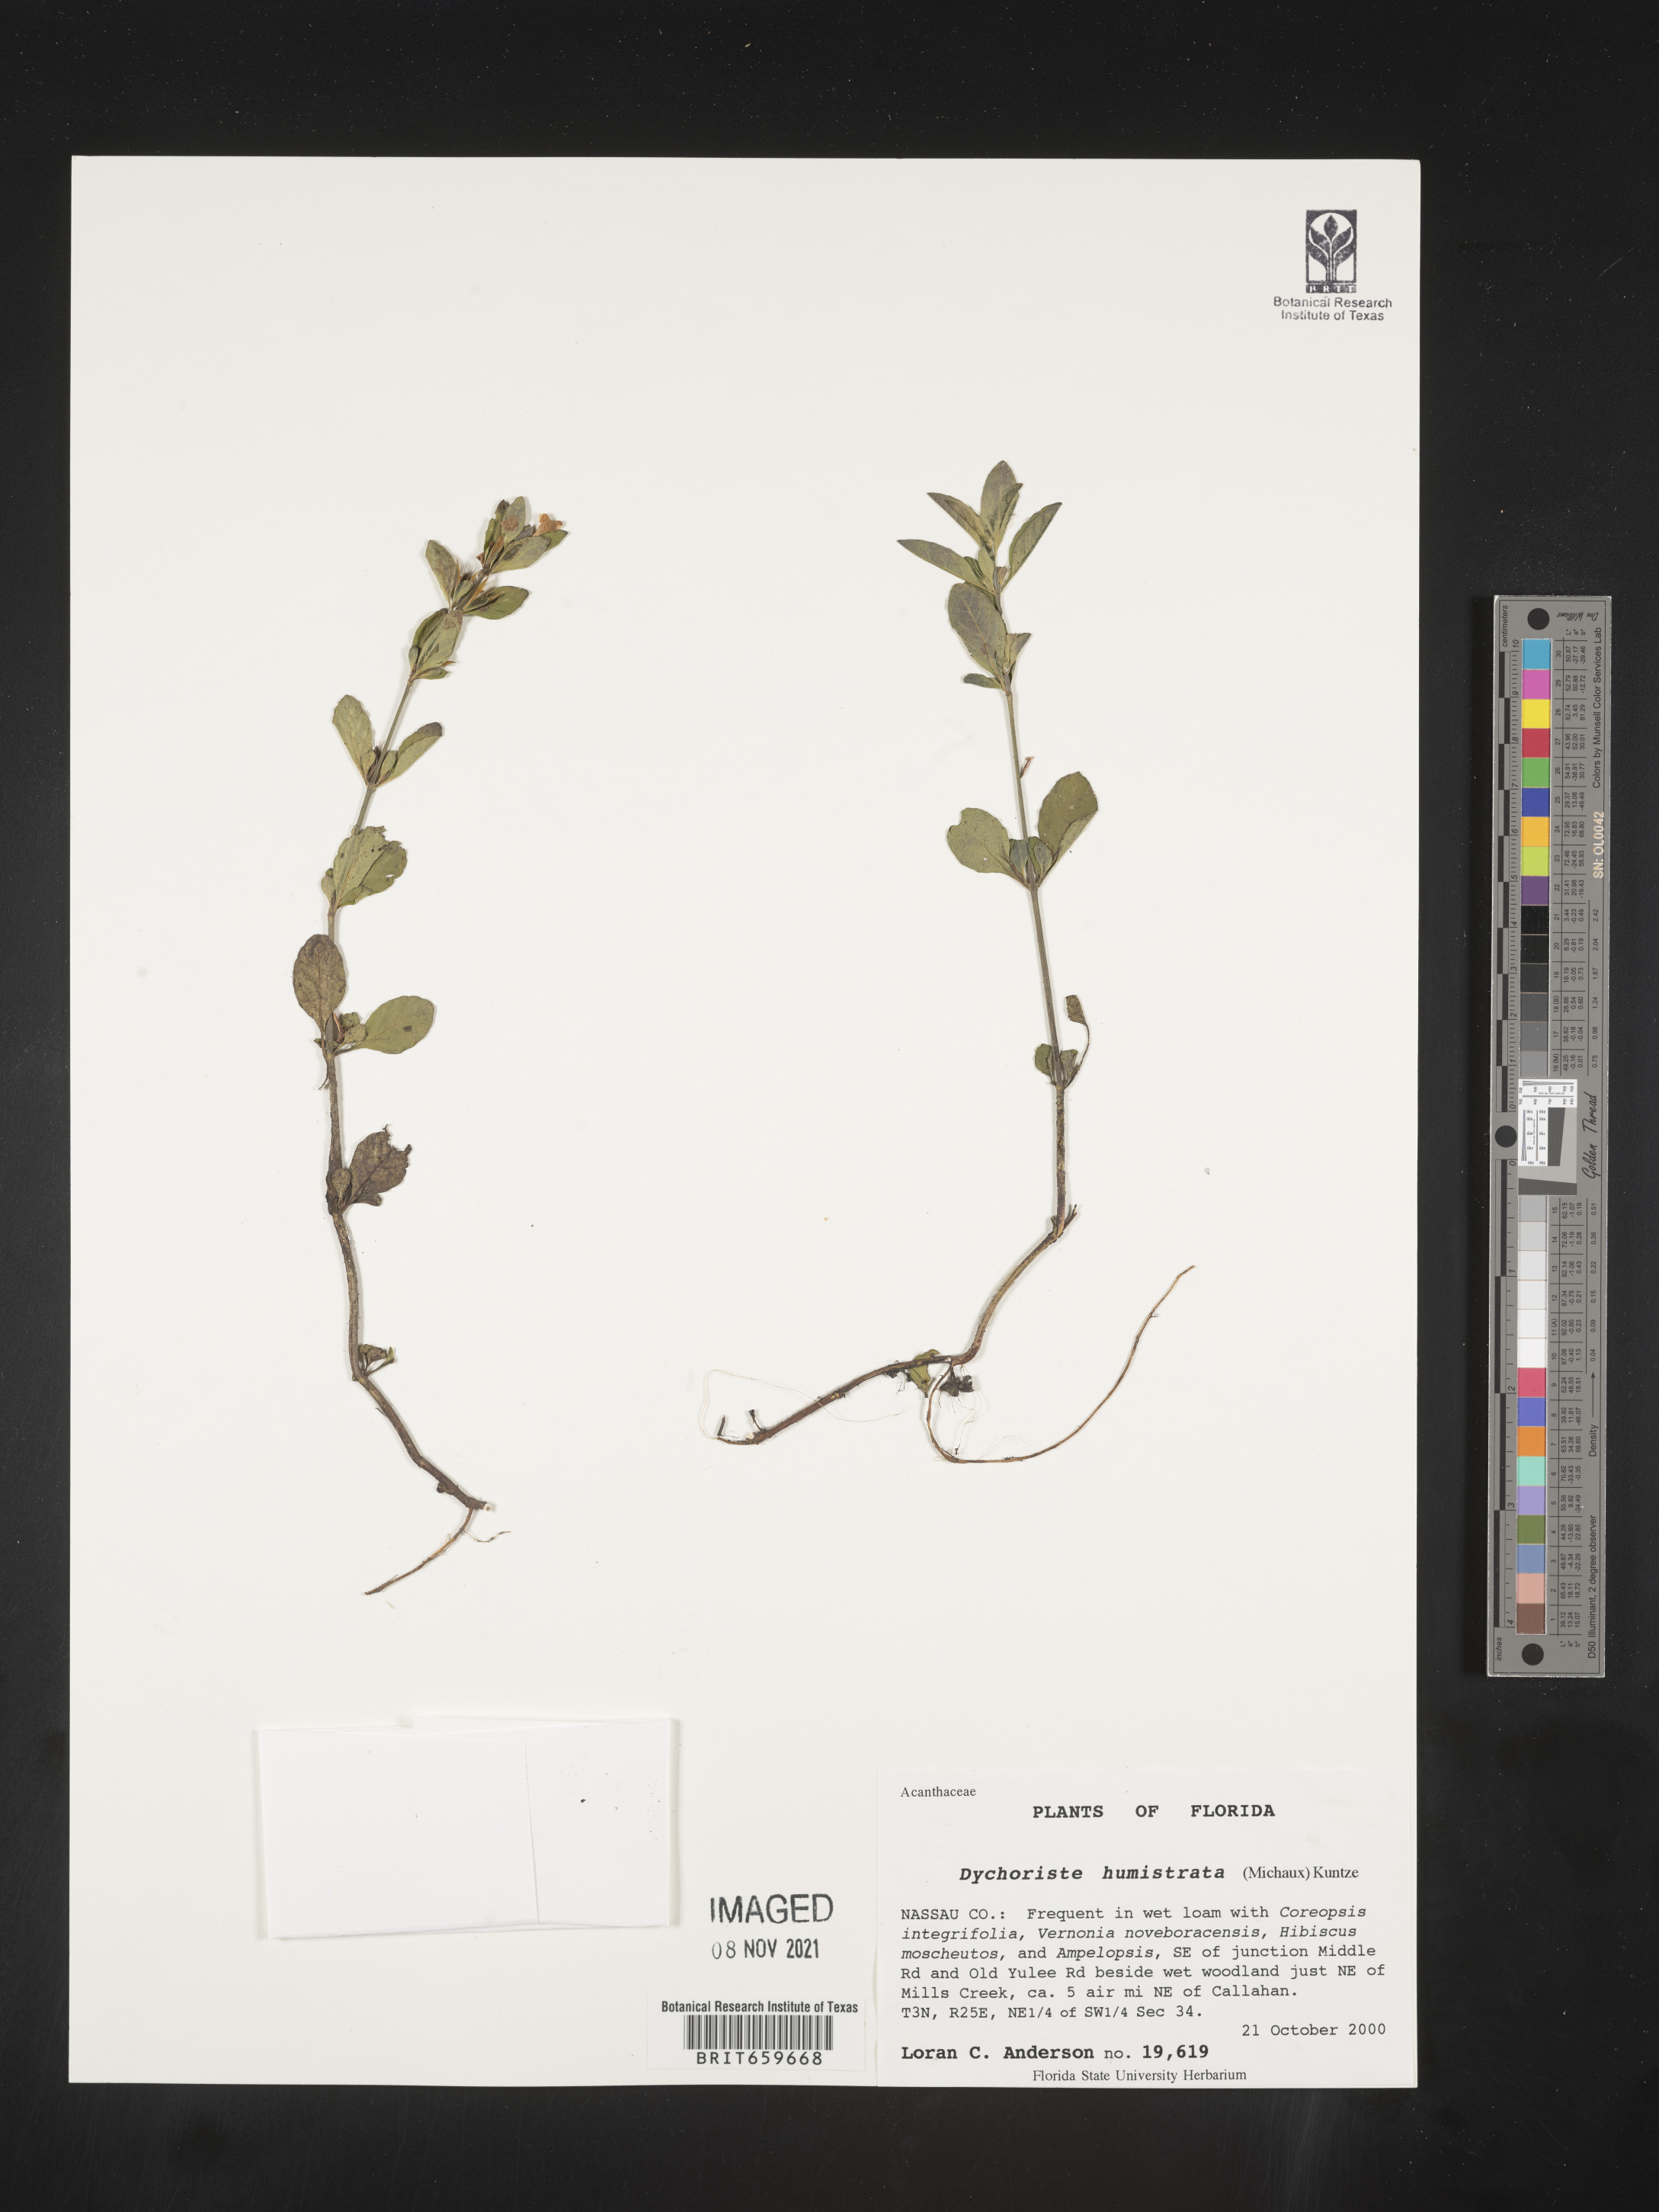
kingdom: Plantae
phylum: Tracheophyta
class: Magnoliopsida
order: Lamiales
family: Acanthaceae
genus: Dyschoriste
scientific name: Dyschoriste
